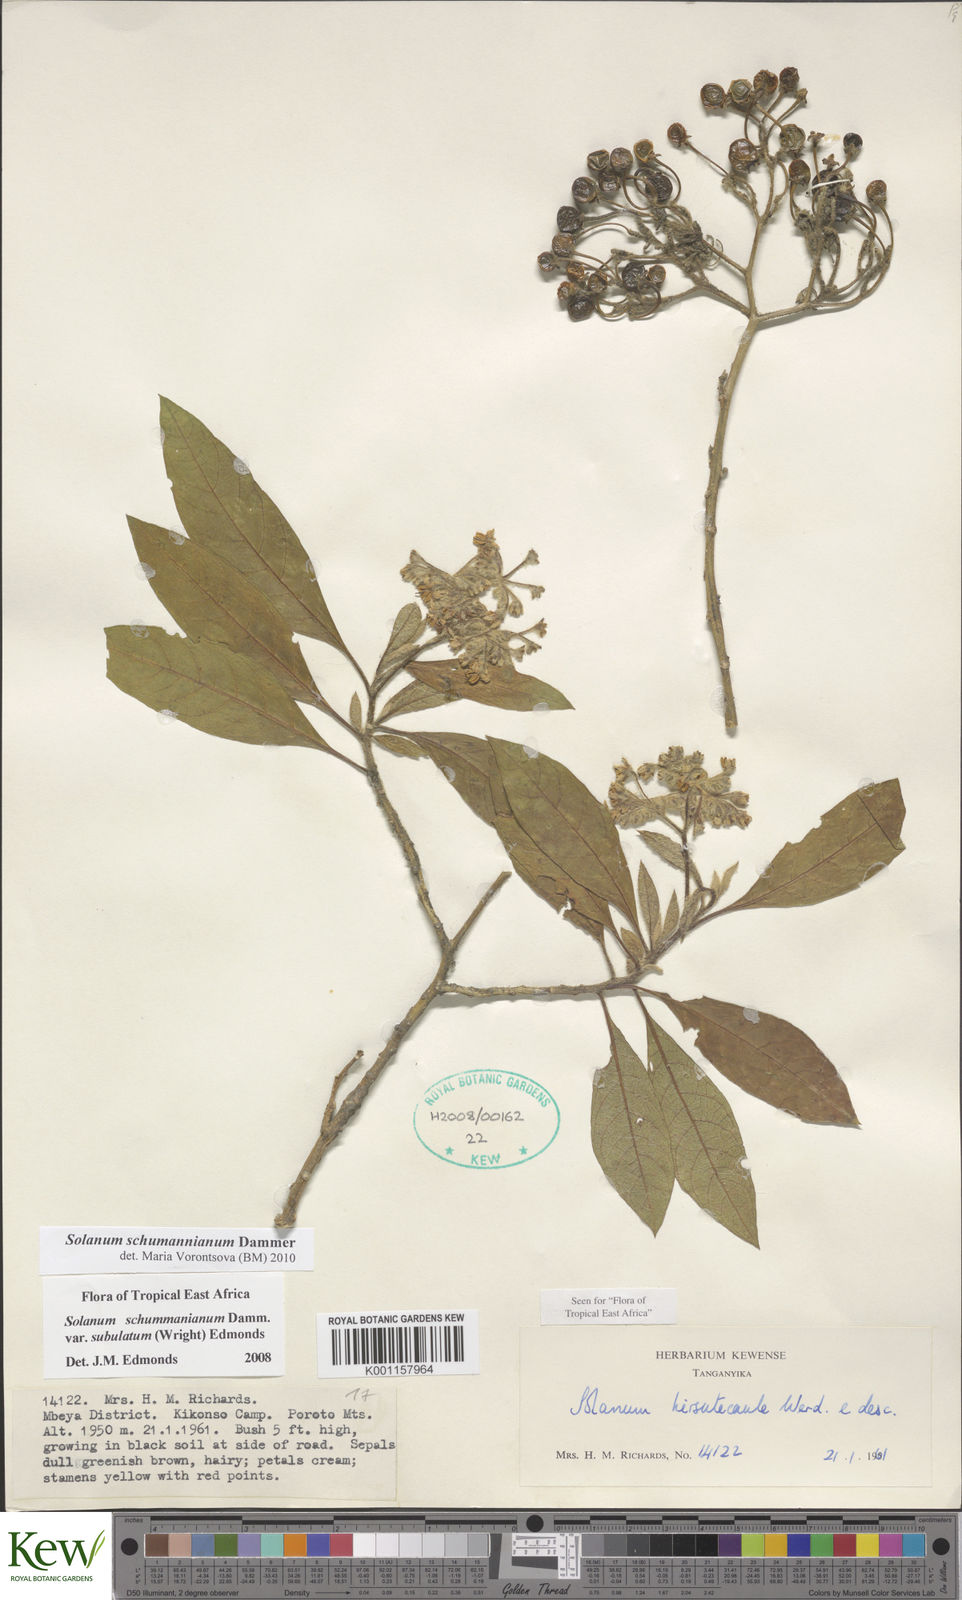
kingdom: Plantae
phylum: Tracheophyta
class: Magnoliopsida
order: Solanales
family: Solanaceae
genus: Solanum
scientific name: Solanum schumannianum
